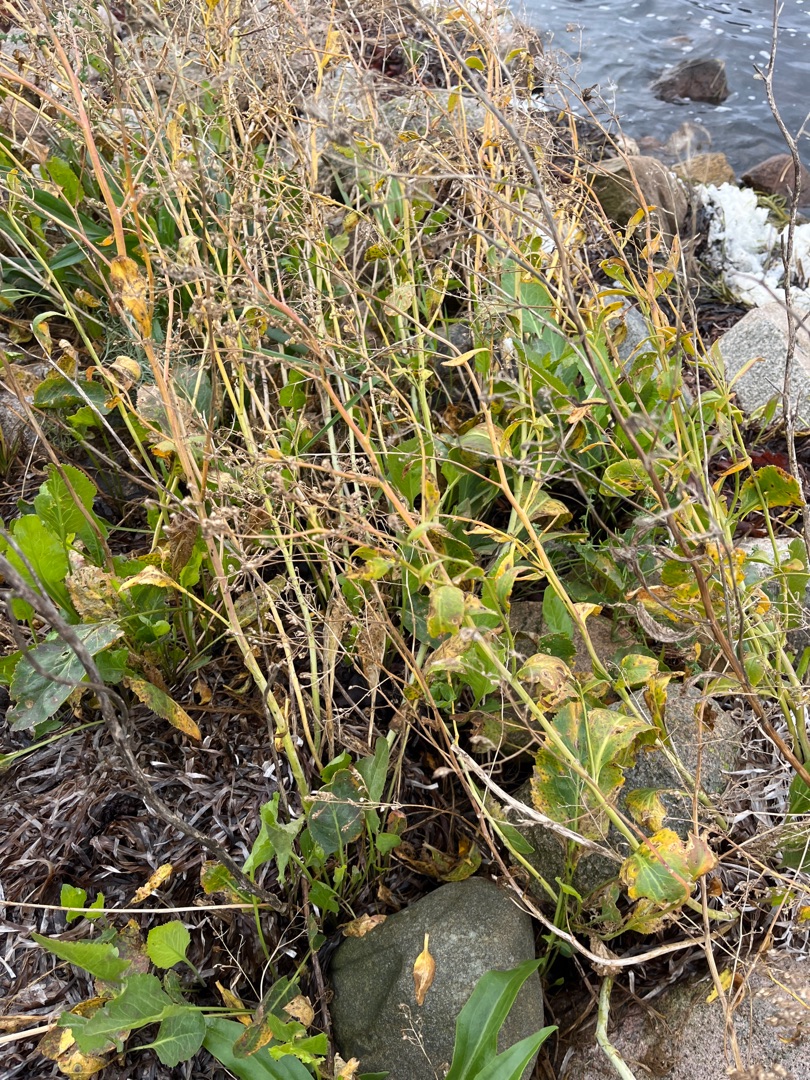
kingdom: Plantae
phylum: Tracheophyta
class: Magnoliopsida
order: Brassicales
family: Brassicaceae
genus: Lepidium
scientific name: Lepidium latifolium
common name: Strand-karse
